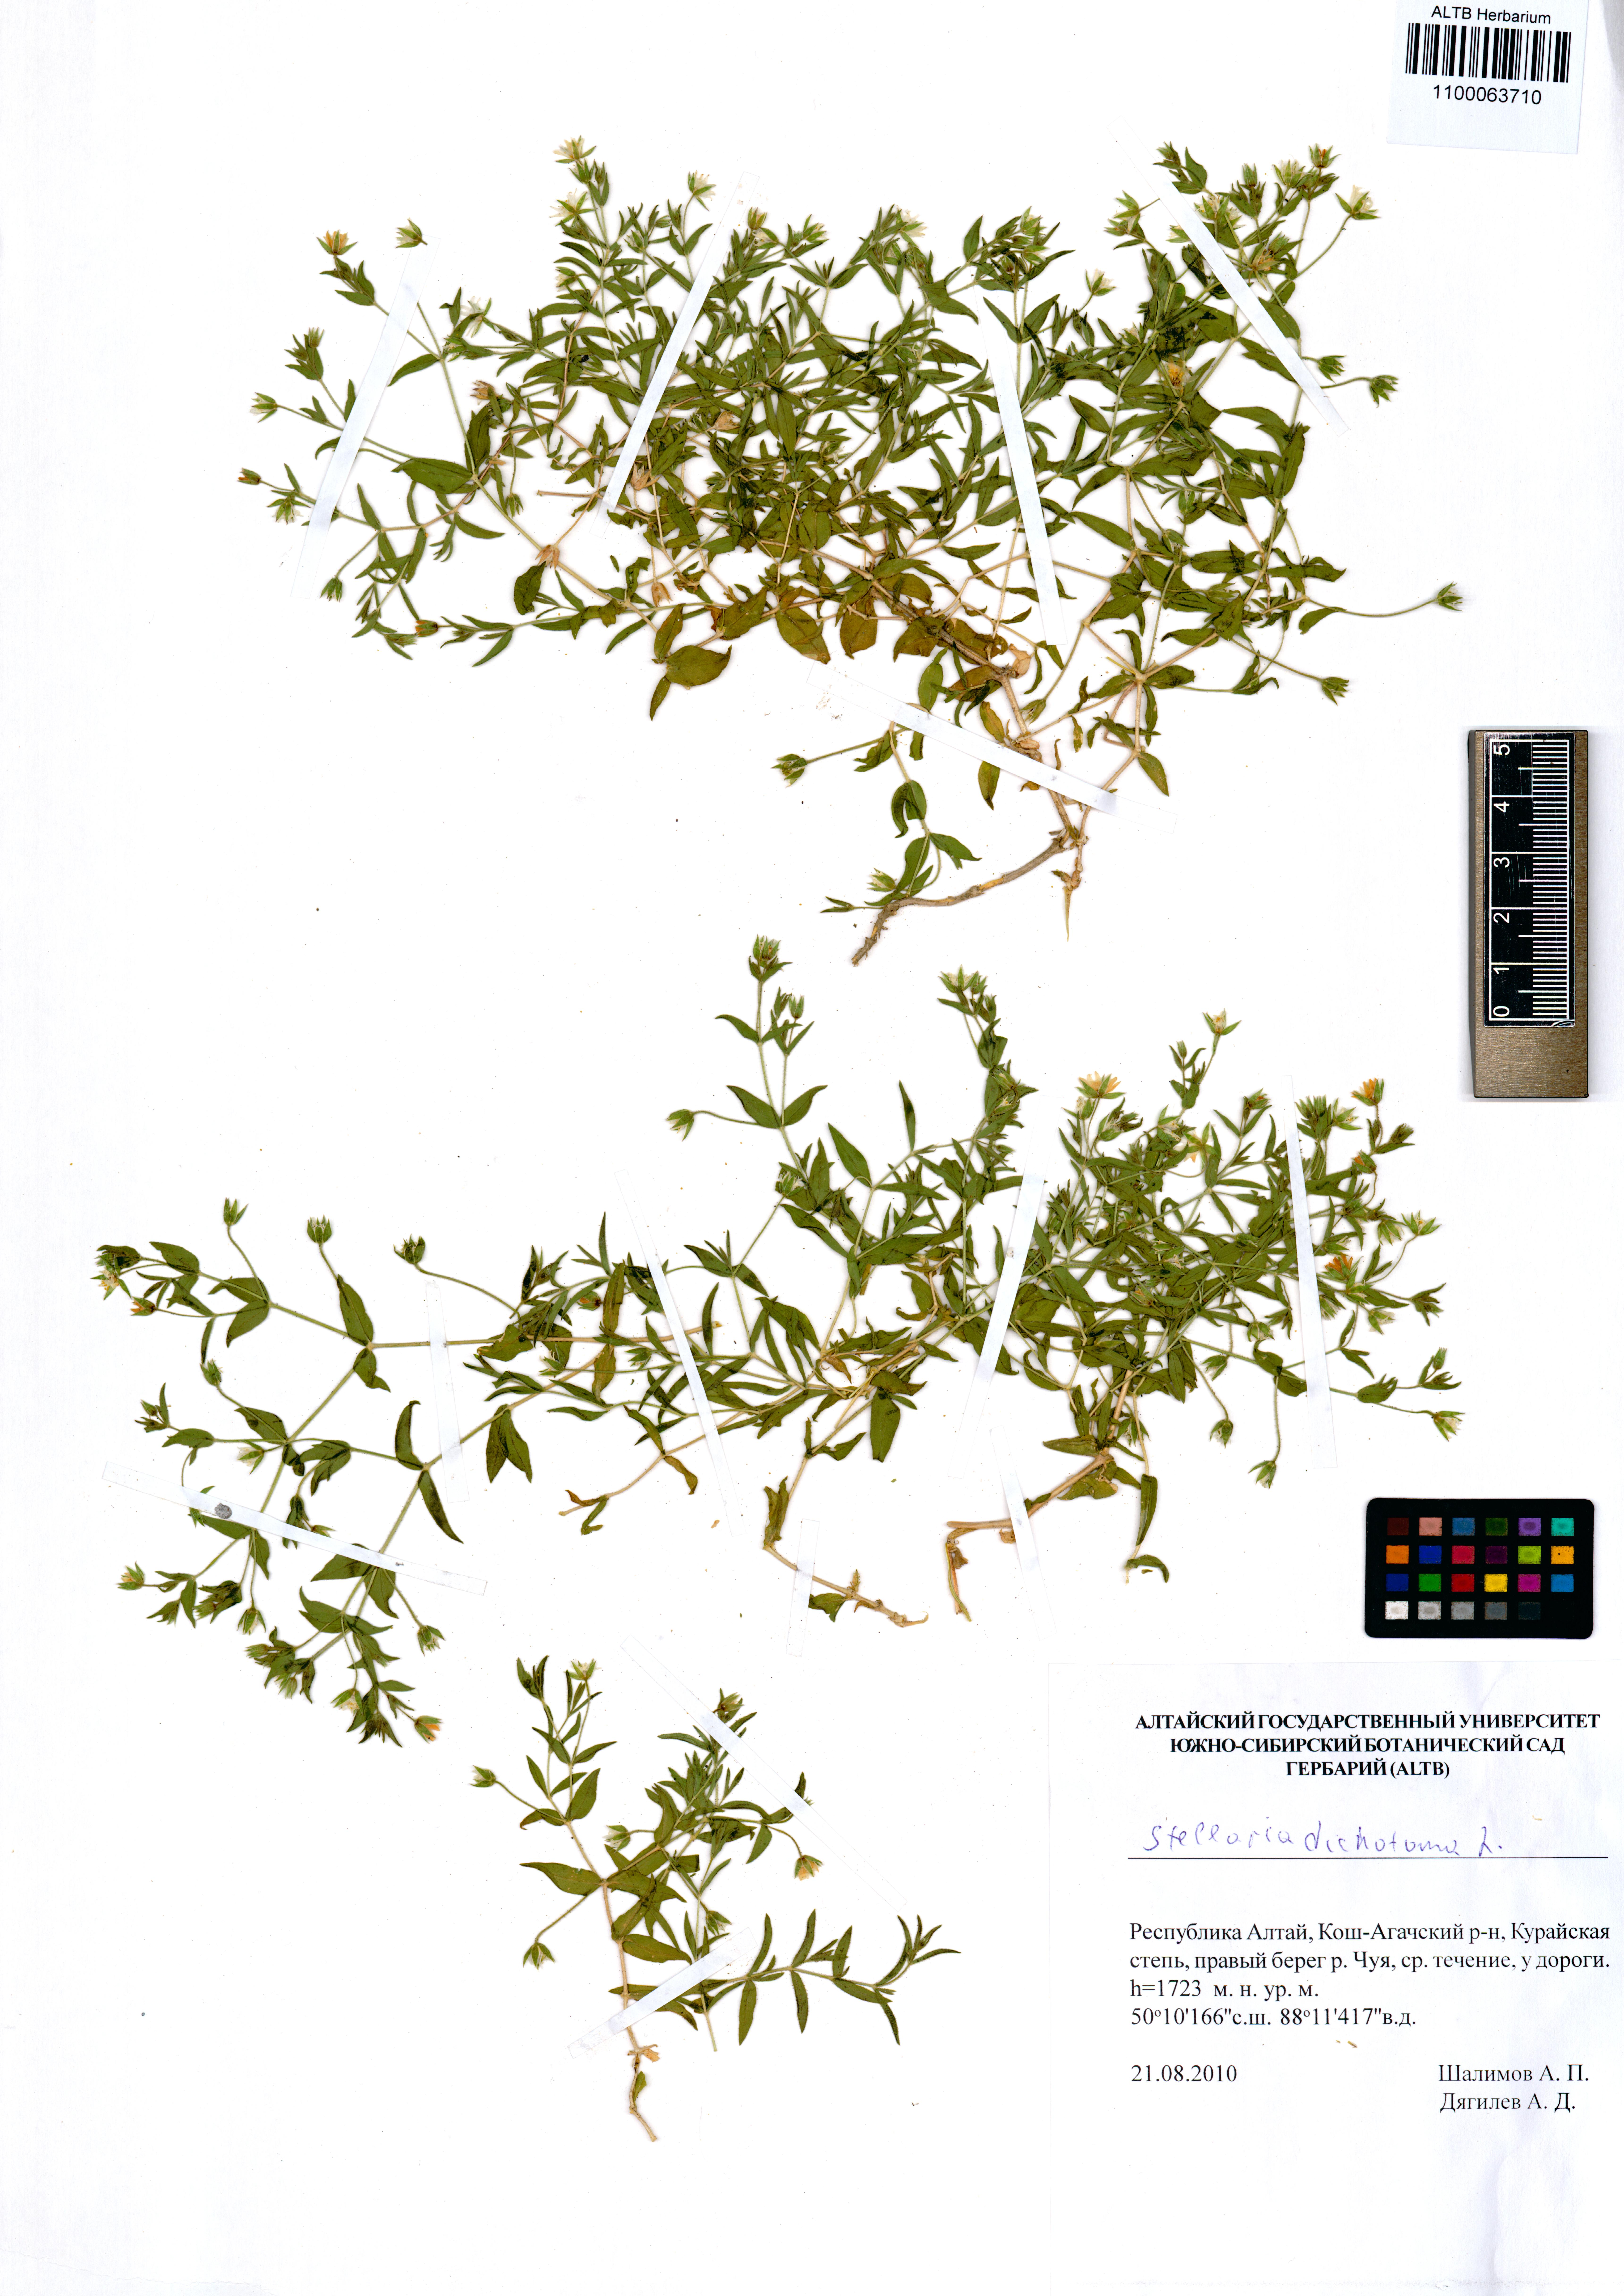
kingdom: Plantae
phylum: Tracheophyta
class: Magnoliopsida
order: Caryophyllales
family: Caryophyllaceae
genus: Mesostemma
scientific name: Mesostemma dichotomum
